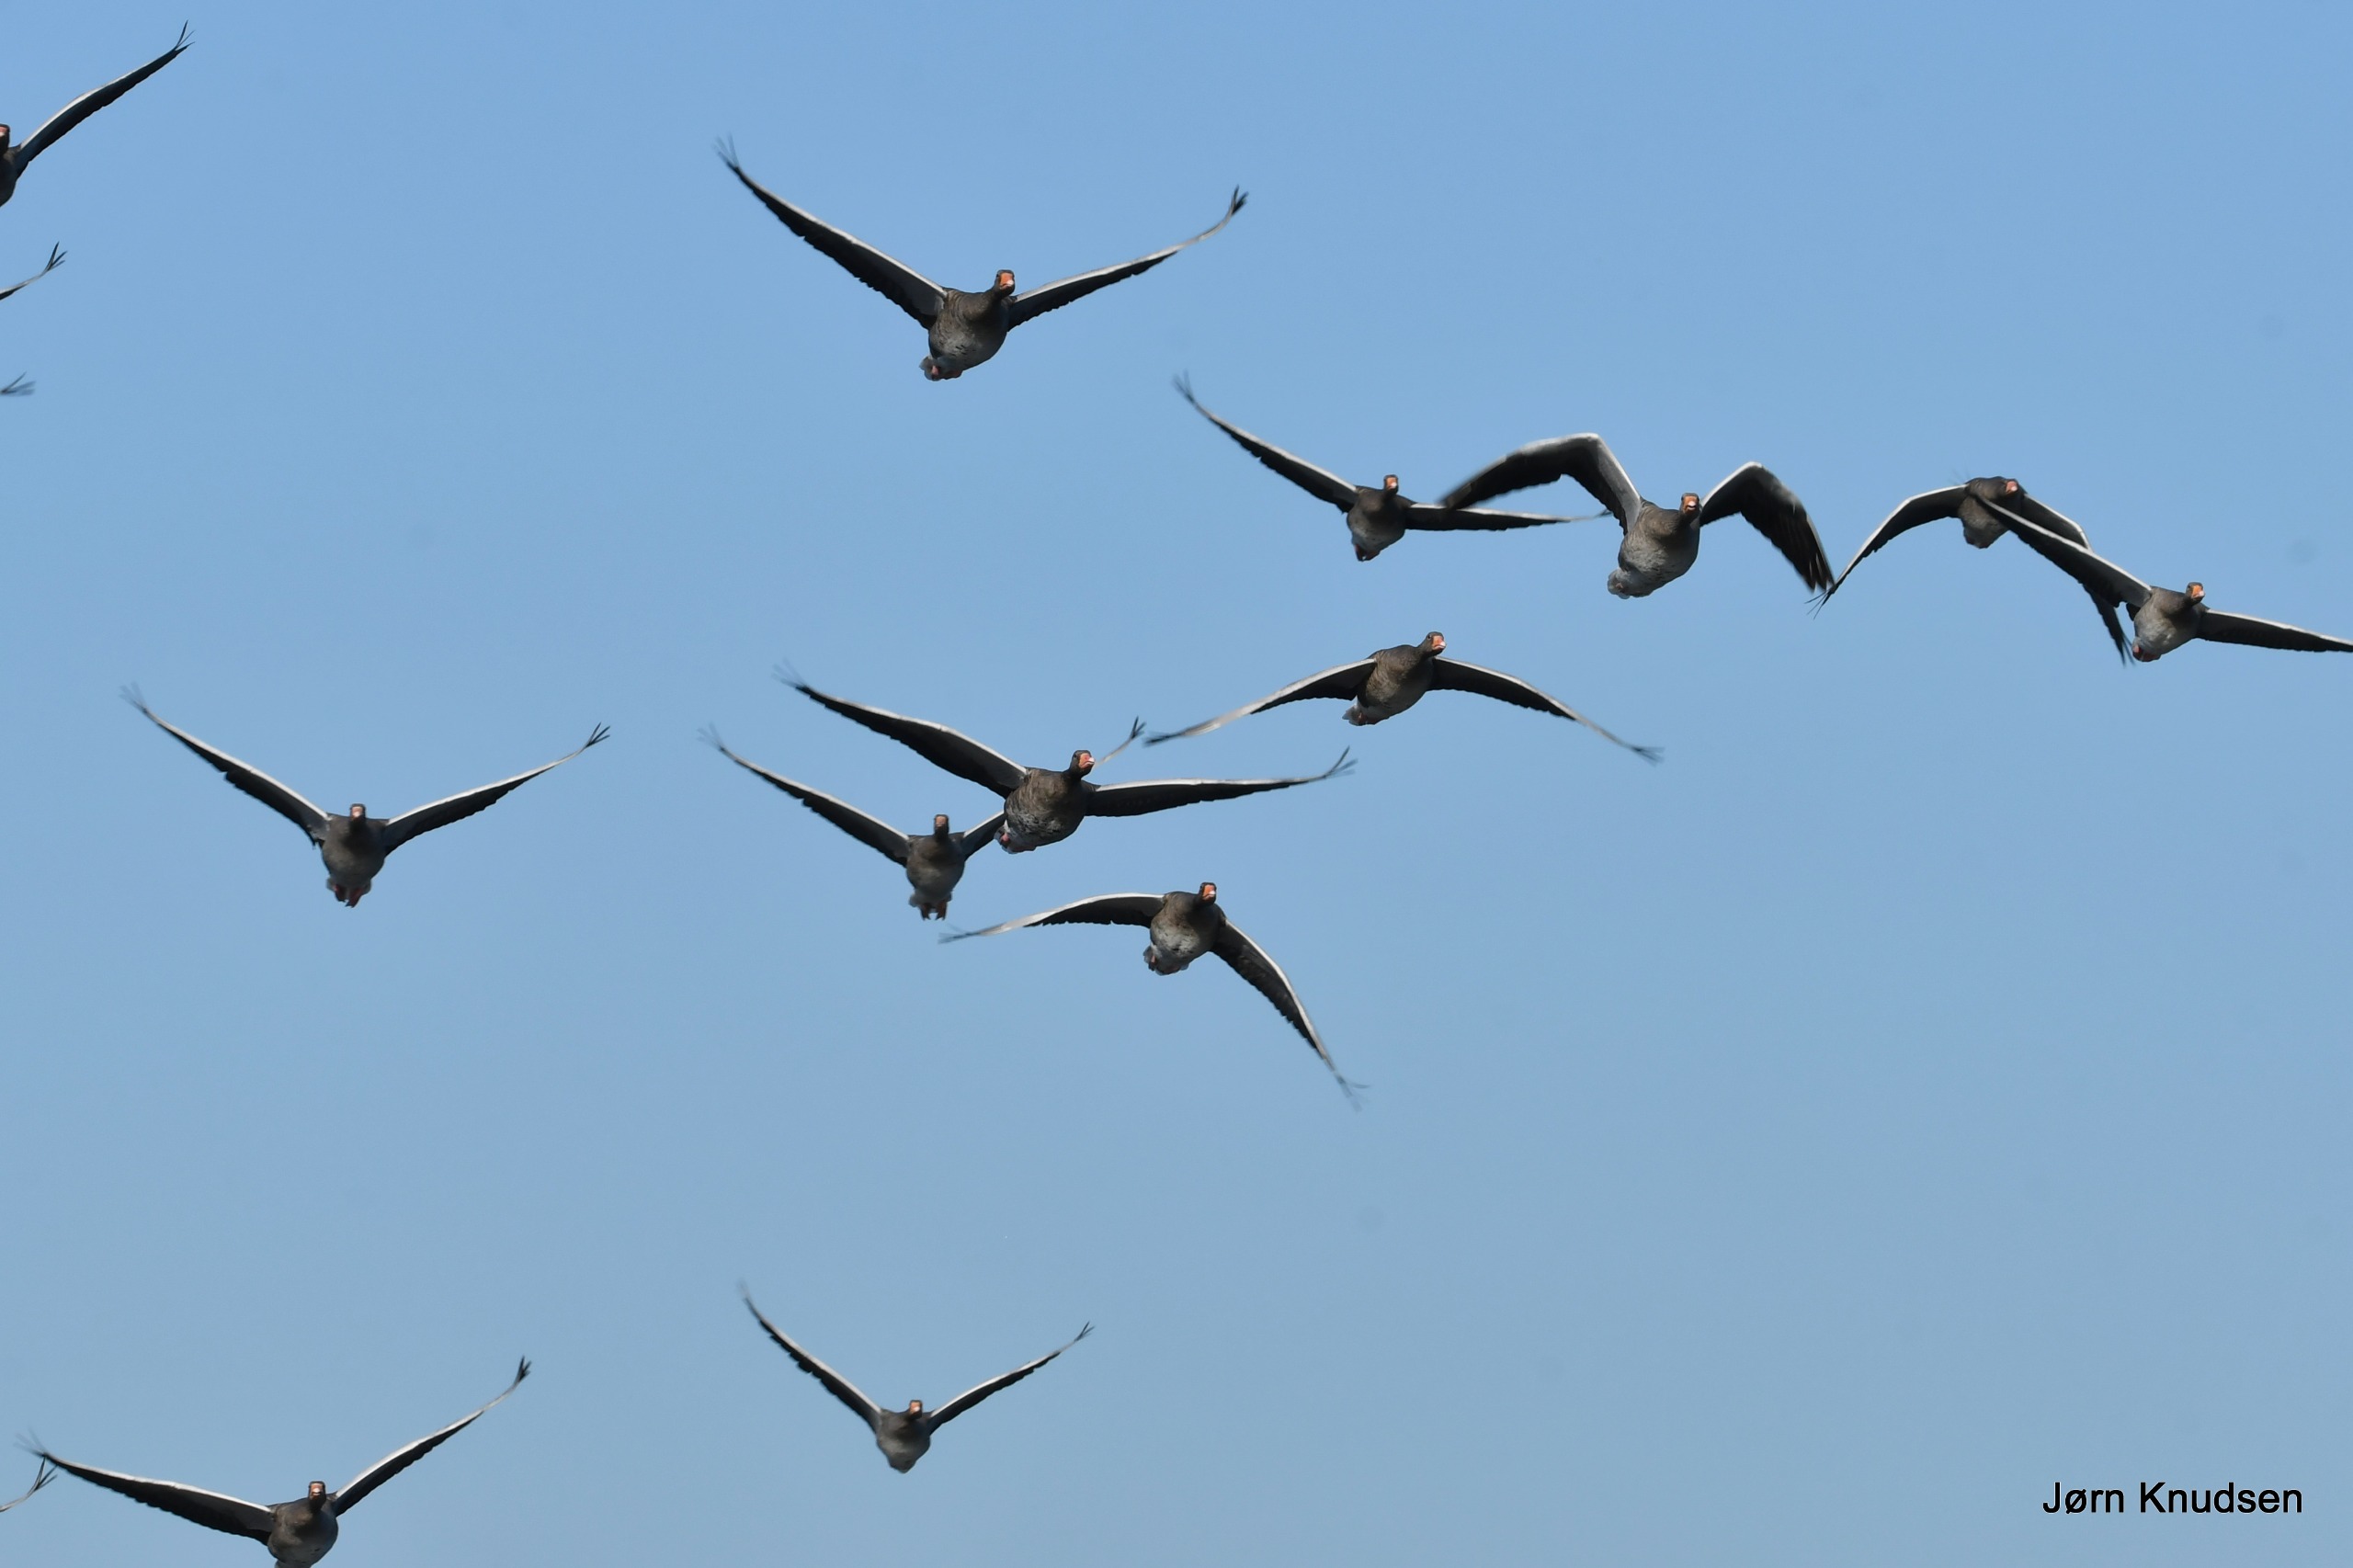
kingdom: Animalia
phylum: Chordata
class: Aves
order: Anseriformes
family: Anatidae
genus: Anser
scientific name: Anser anser
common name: Grågås
